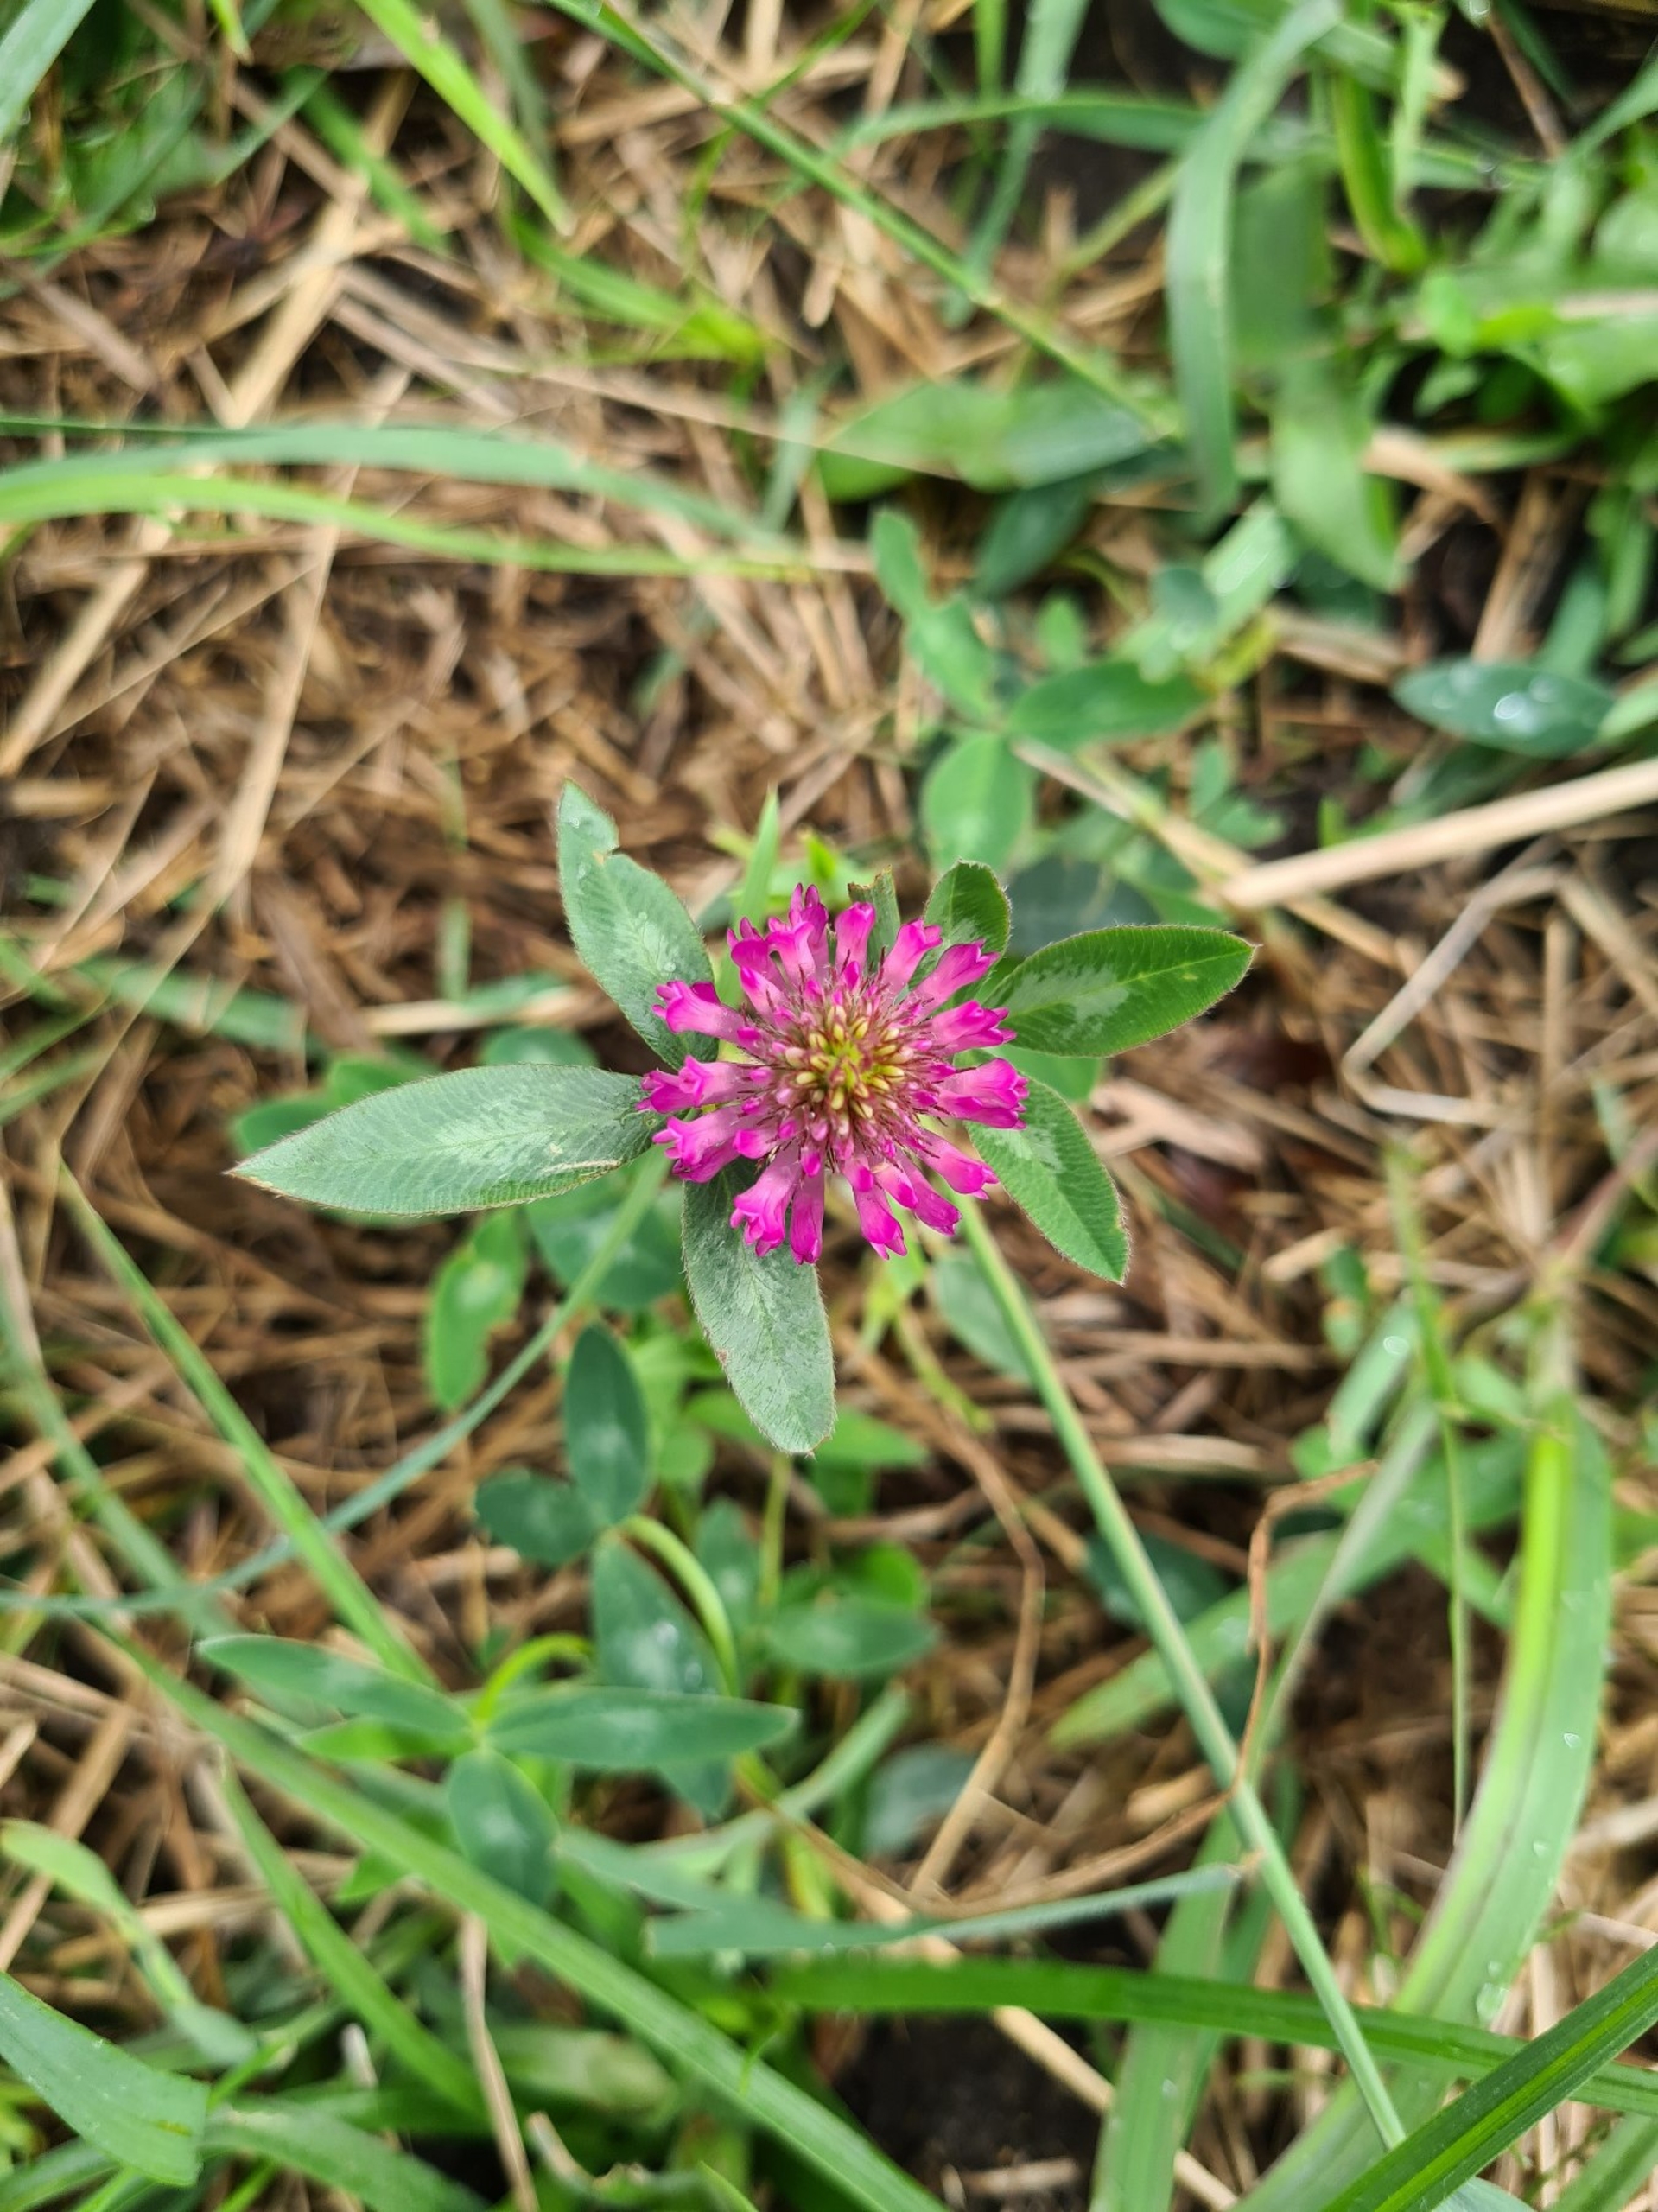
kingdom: Plantae
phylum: Tracheophyta
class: Magnoliopsida
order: Fabales
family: Fabaceae
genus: Trifolium
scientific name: Trifolium medium
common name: Bugtet kløver
